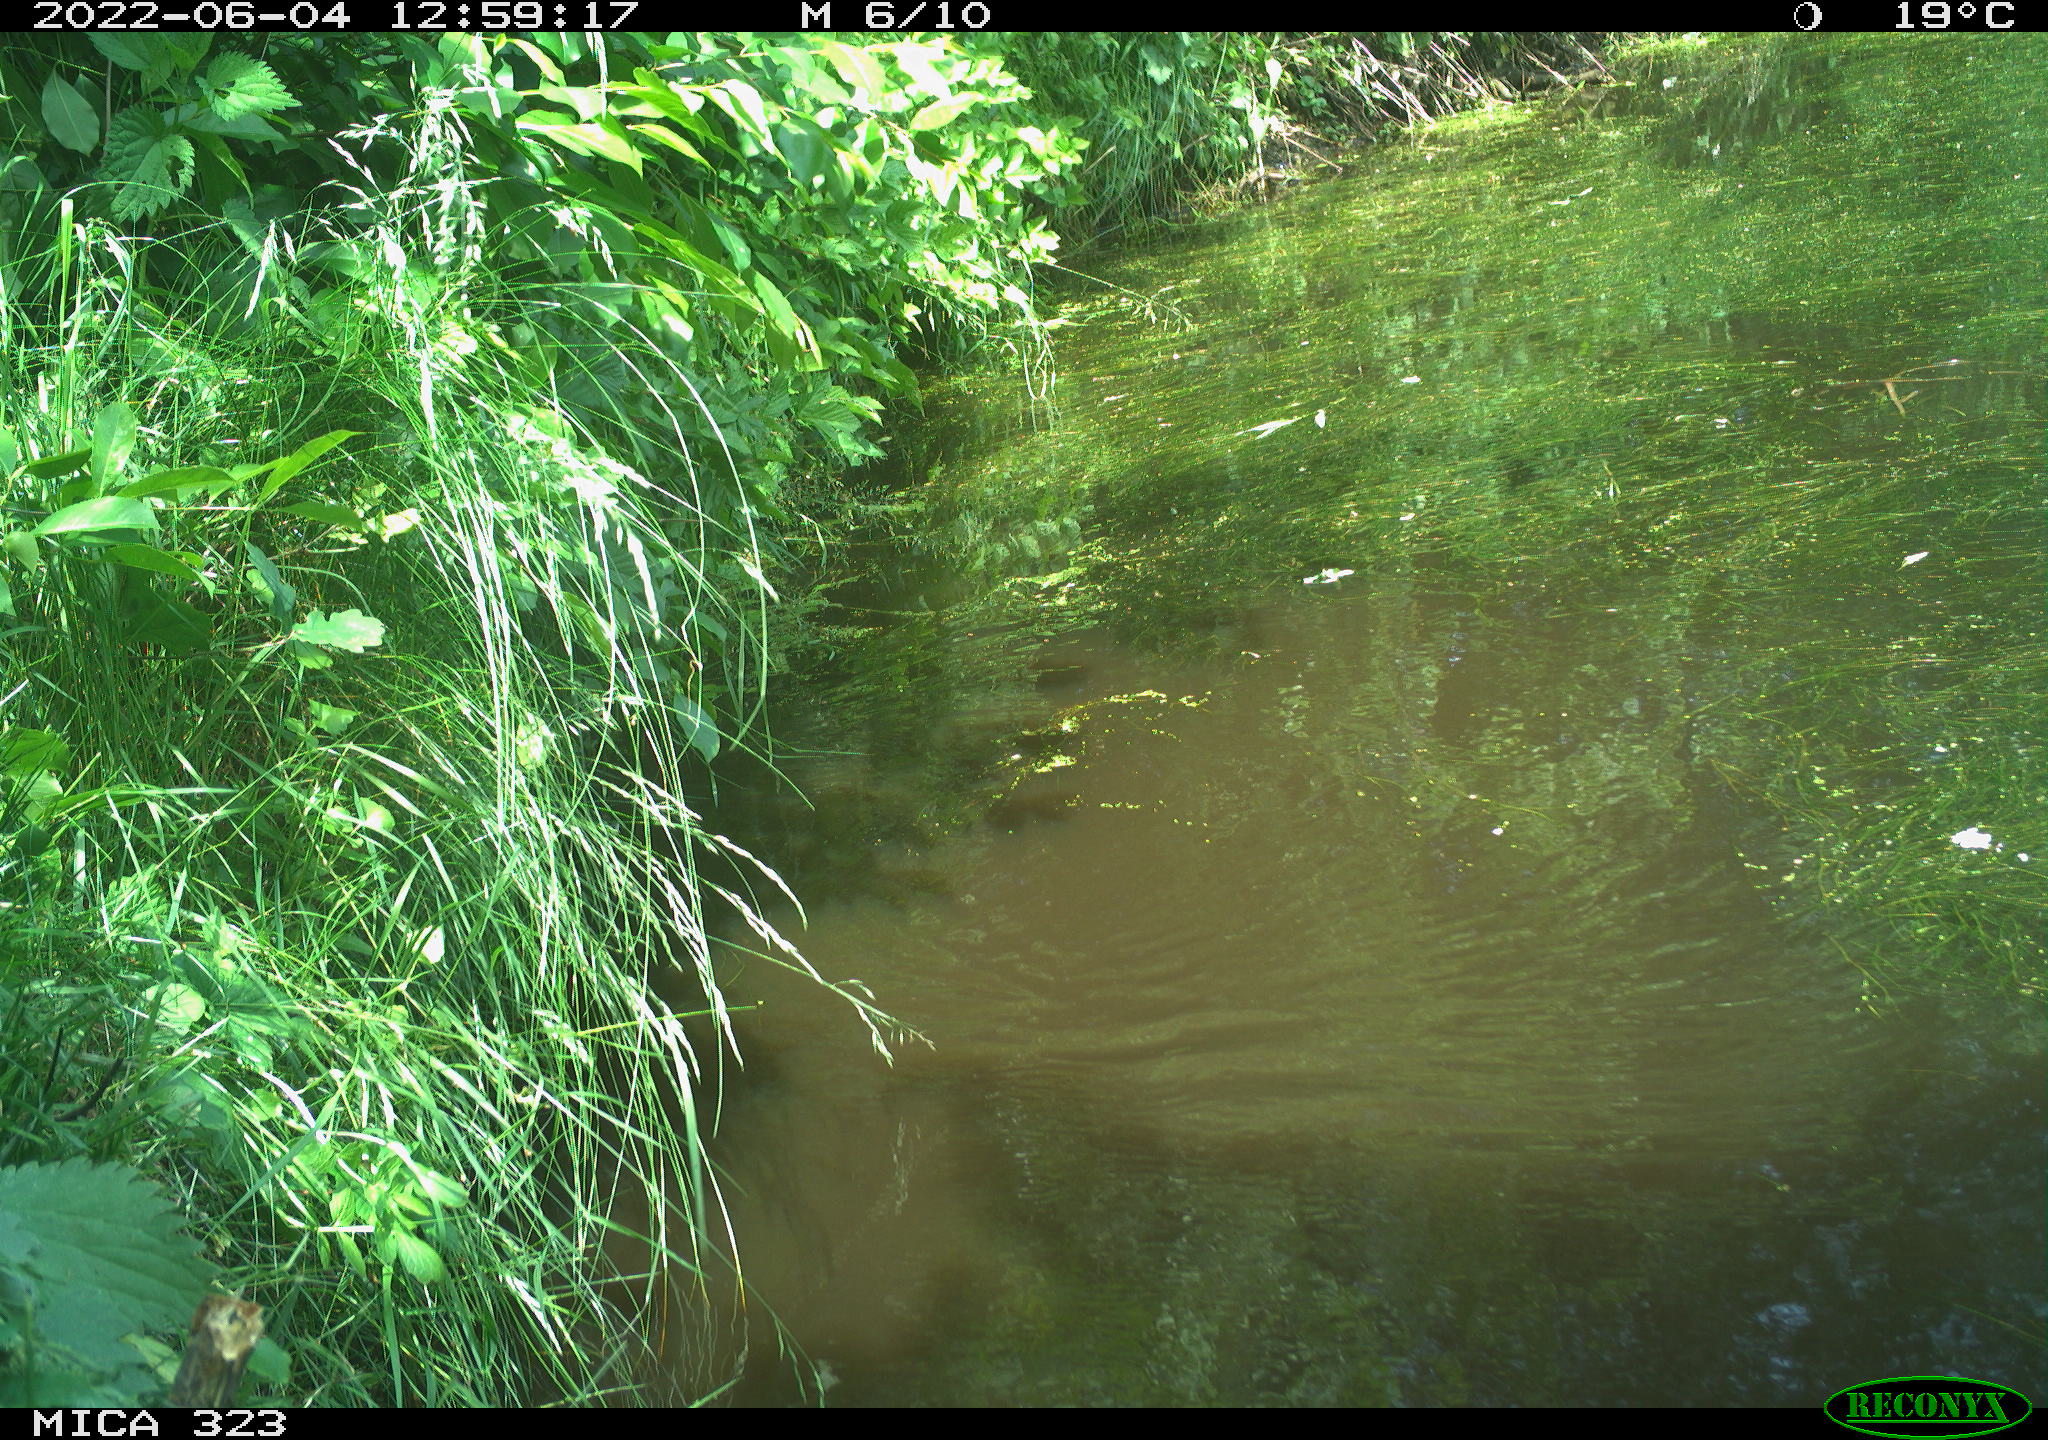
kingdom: Animalia
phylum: Chordata
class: Aves
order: Gruiformes
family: Rallidae
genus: Gallinula
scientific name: Gallinula chloropus
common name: Common moorhen
